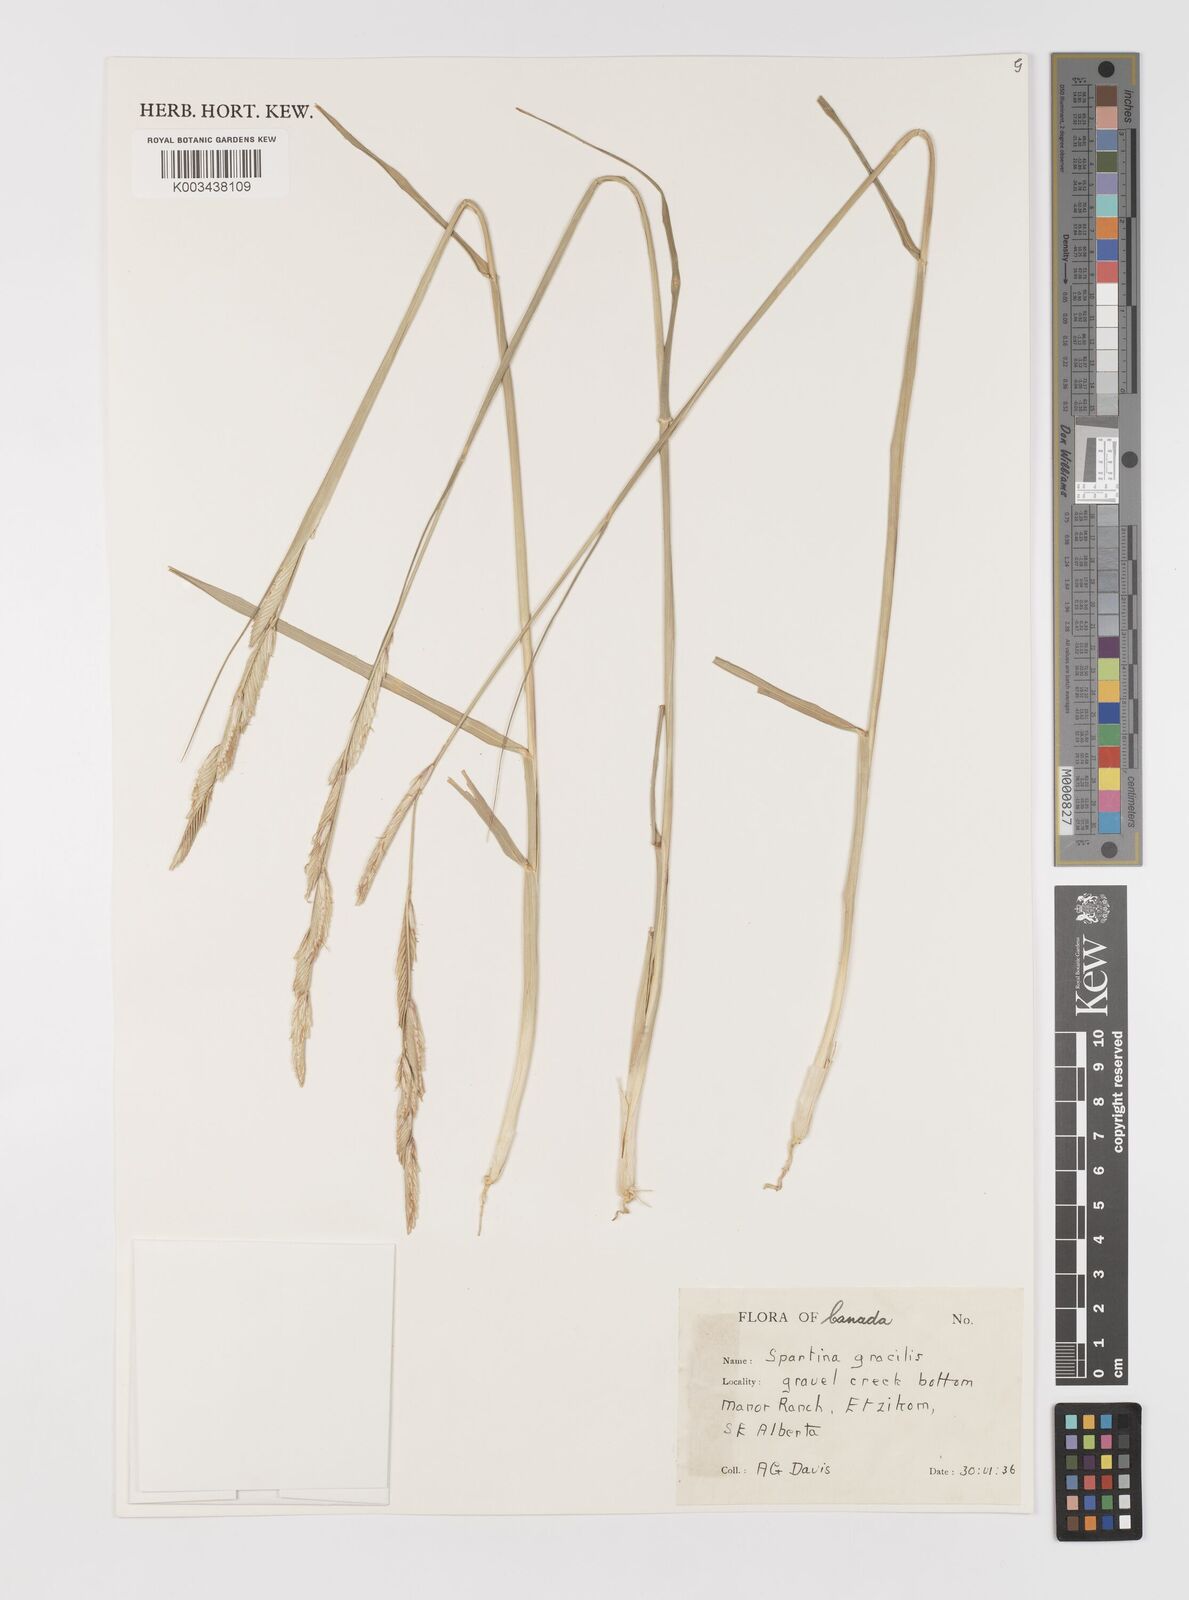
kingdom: Plantae
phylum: Tracheophyta
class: Liliopsida
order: Poales
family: Poaceae
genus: Sporobolus
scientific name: Sporobolus hookerianus
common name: Alkali cordgrass
